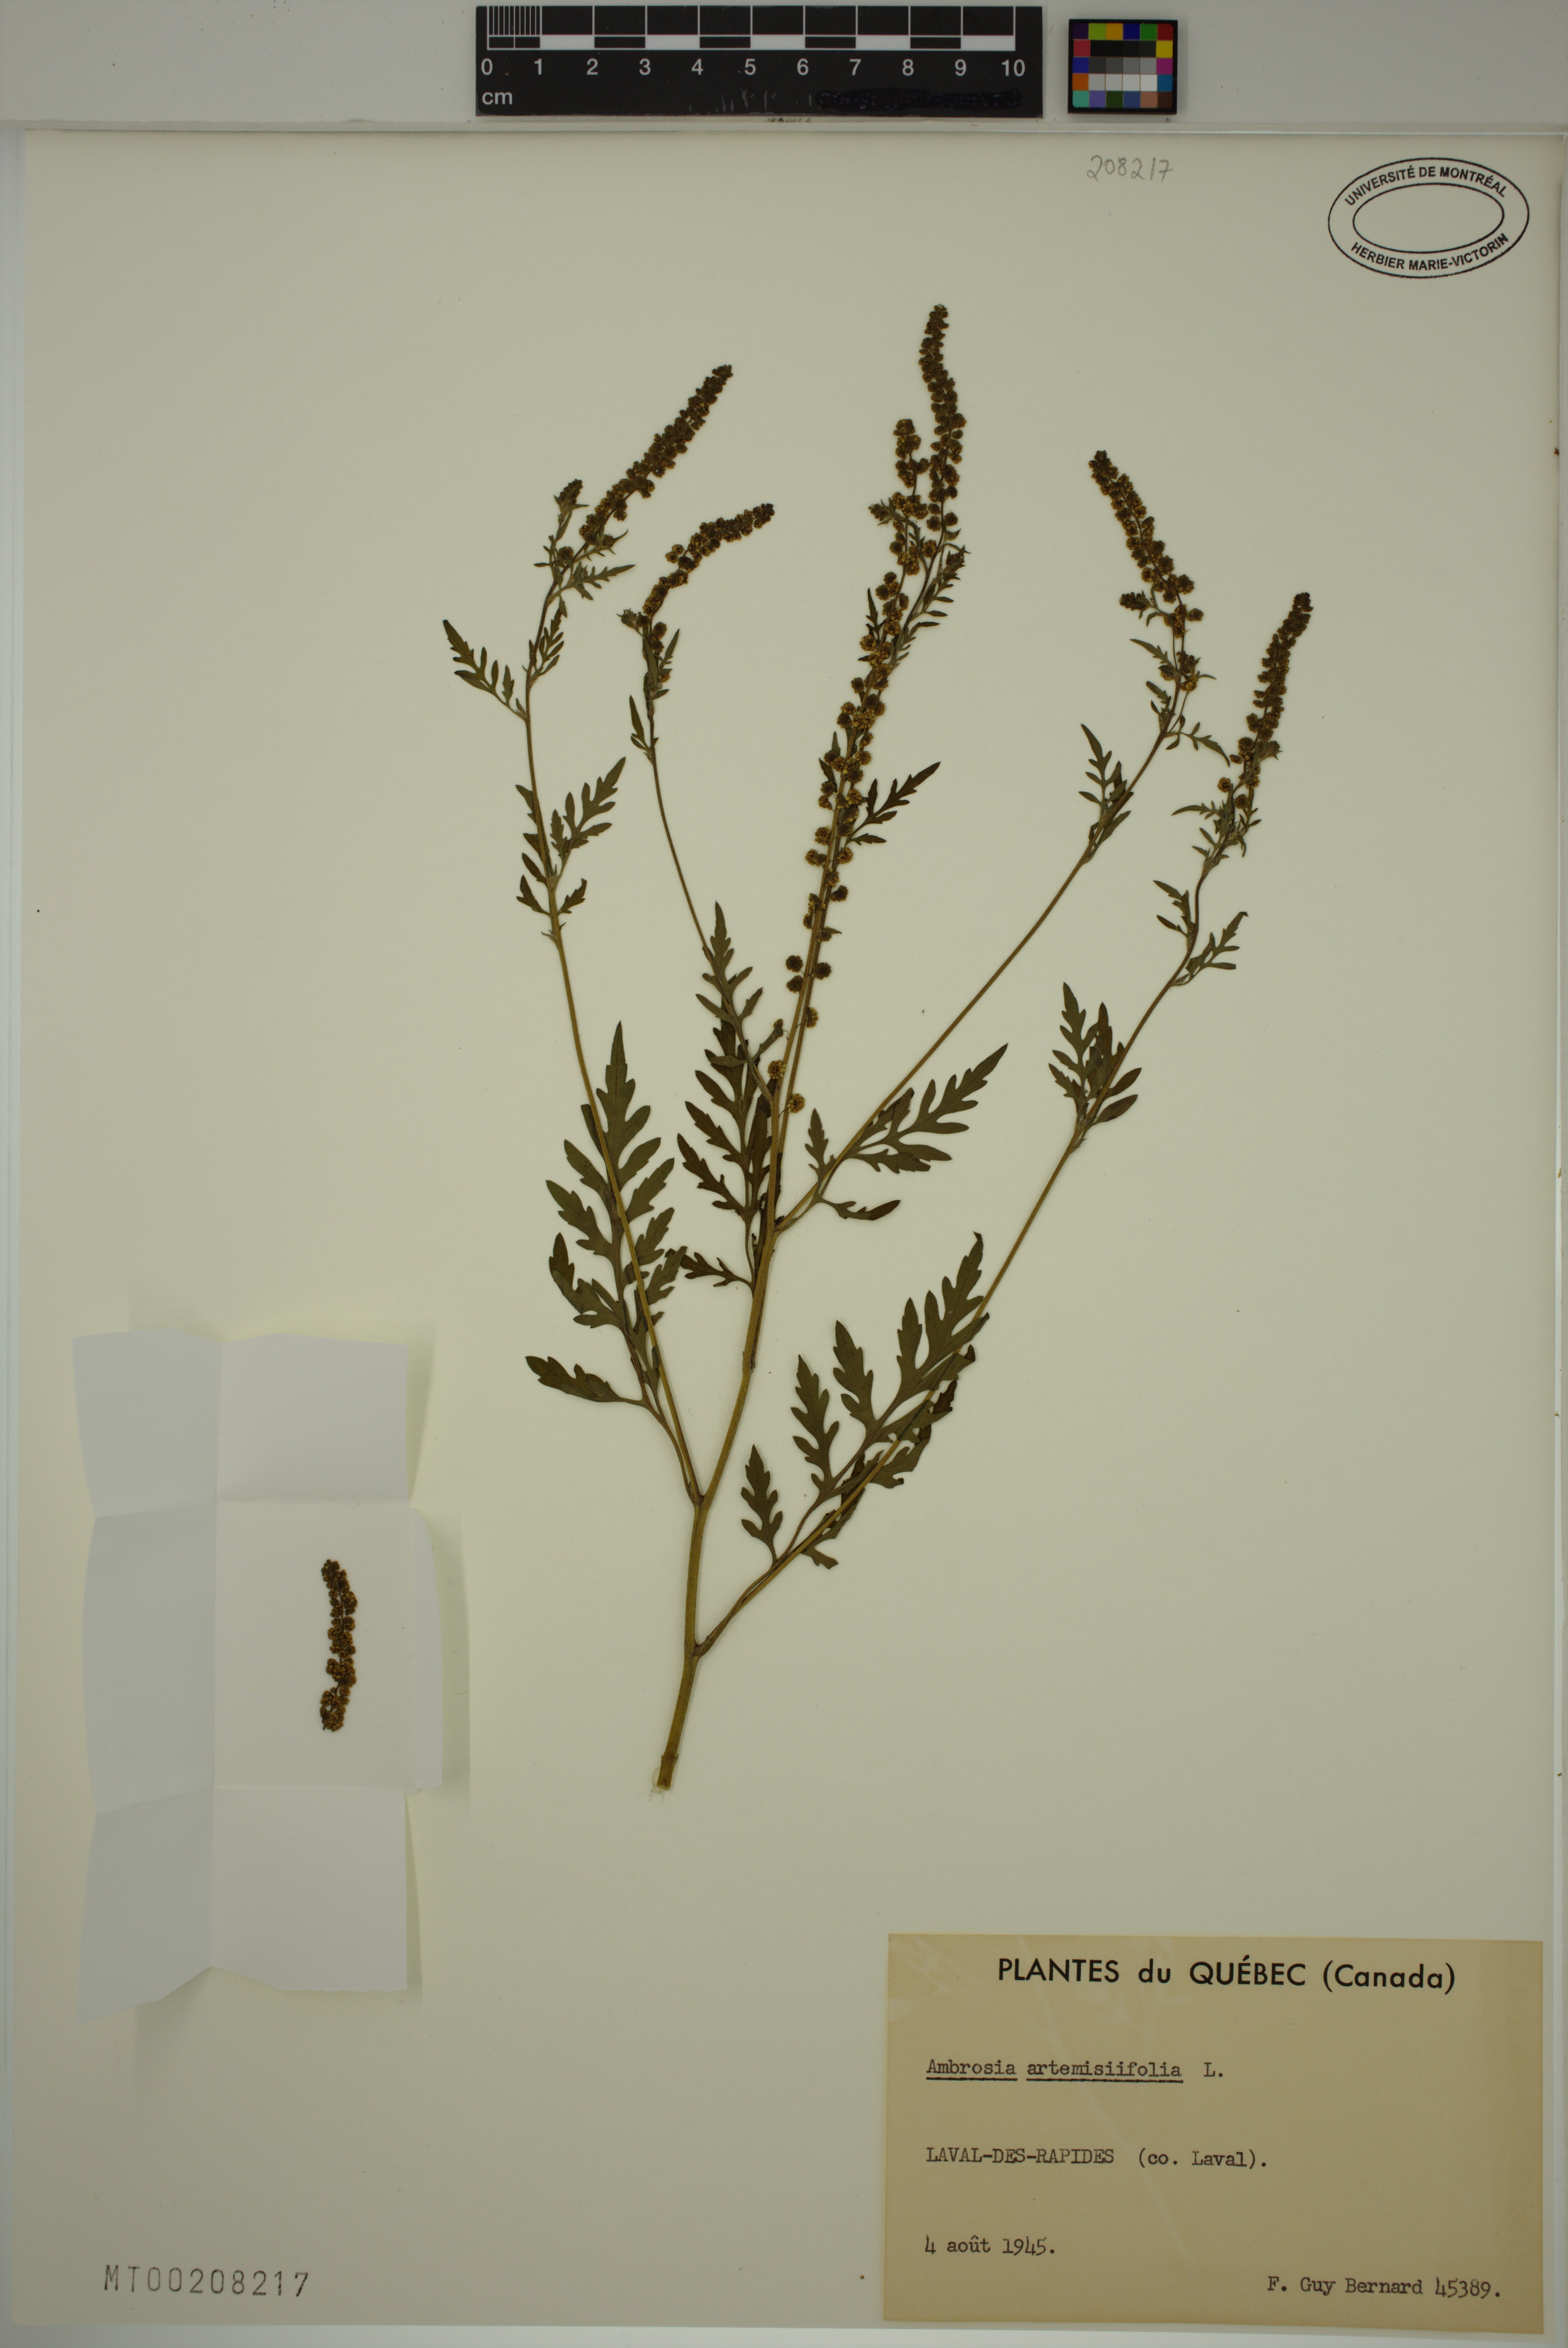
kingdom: Plantae
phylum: Tracheophyta
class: Magnoliopsida
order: Asterales
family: Asteraceae
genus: Ambrosia
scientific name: Ambrosia artemisiifolia
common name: Annual ragweed
